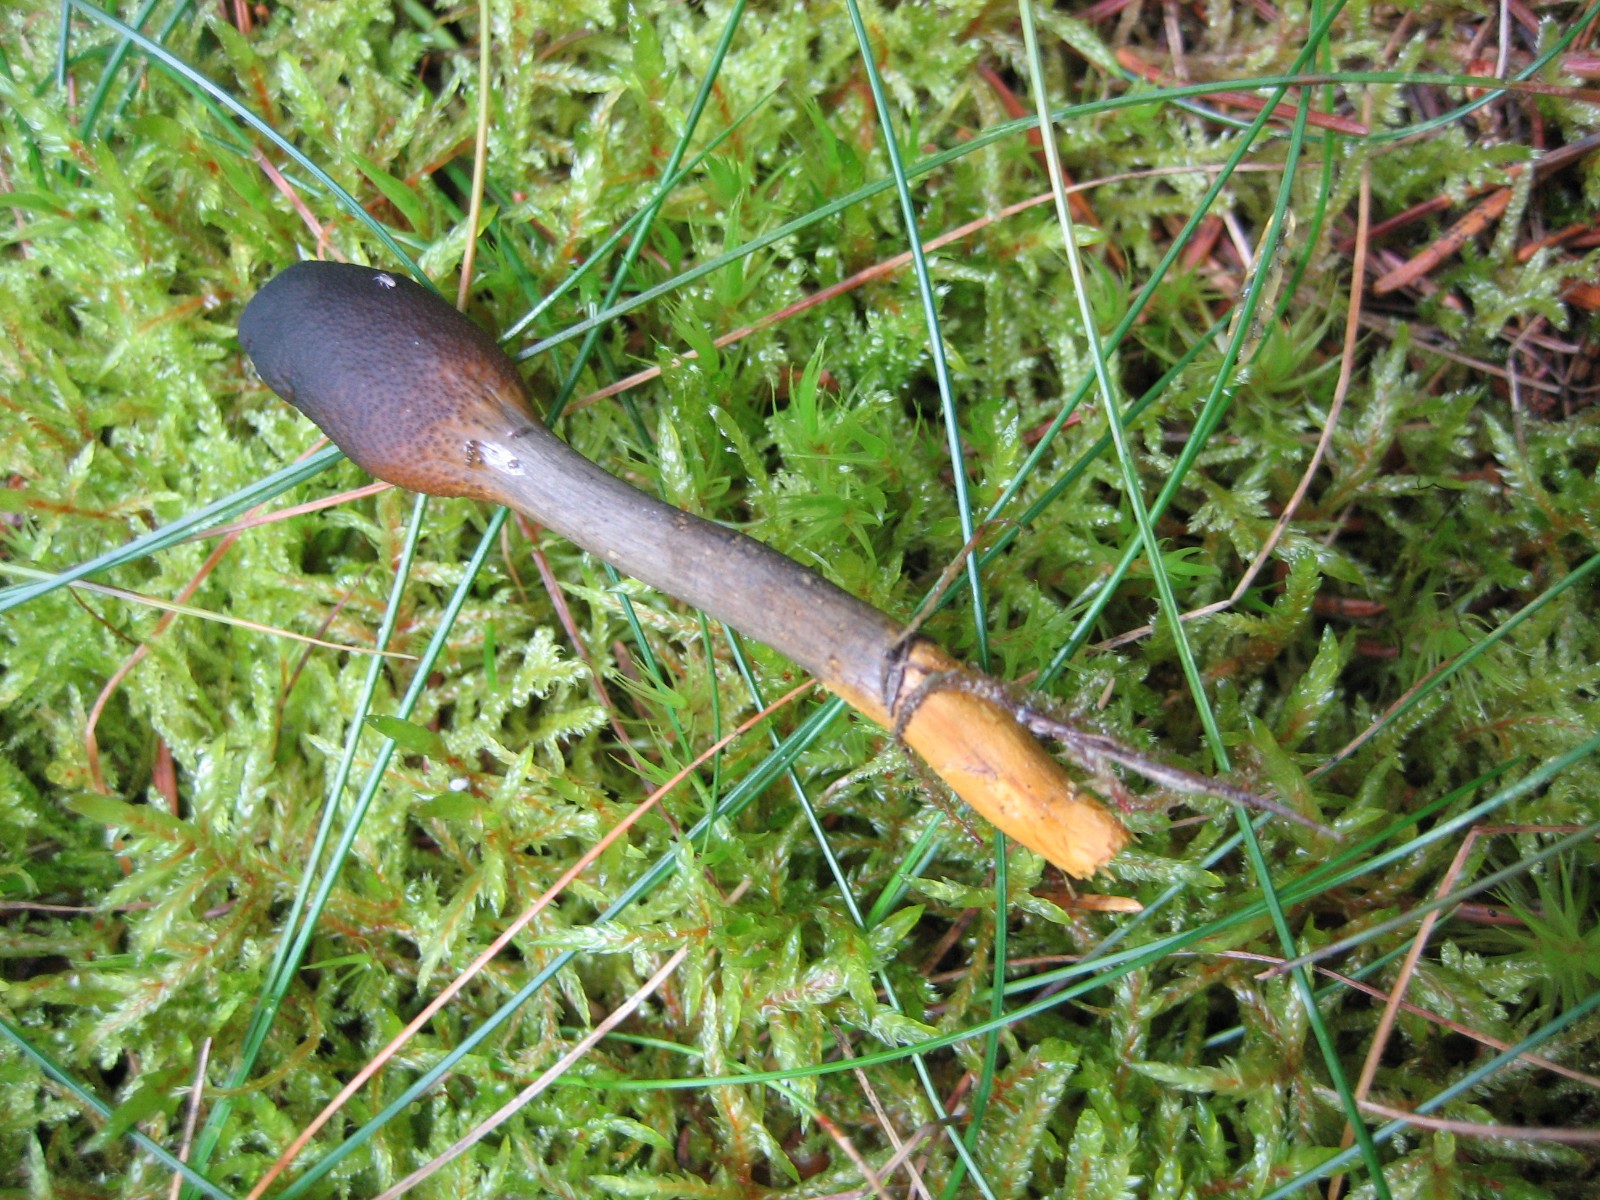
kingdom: Fungi
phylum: Ascomycota
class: Sordariomycetes
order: Hypocreales
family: Ophiocordycipitaceae
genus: Tolypocladium
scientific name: Tolypocladium ophioglossoides
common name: slank snyltekølle
